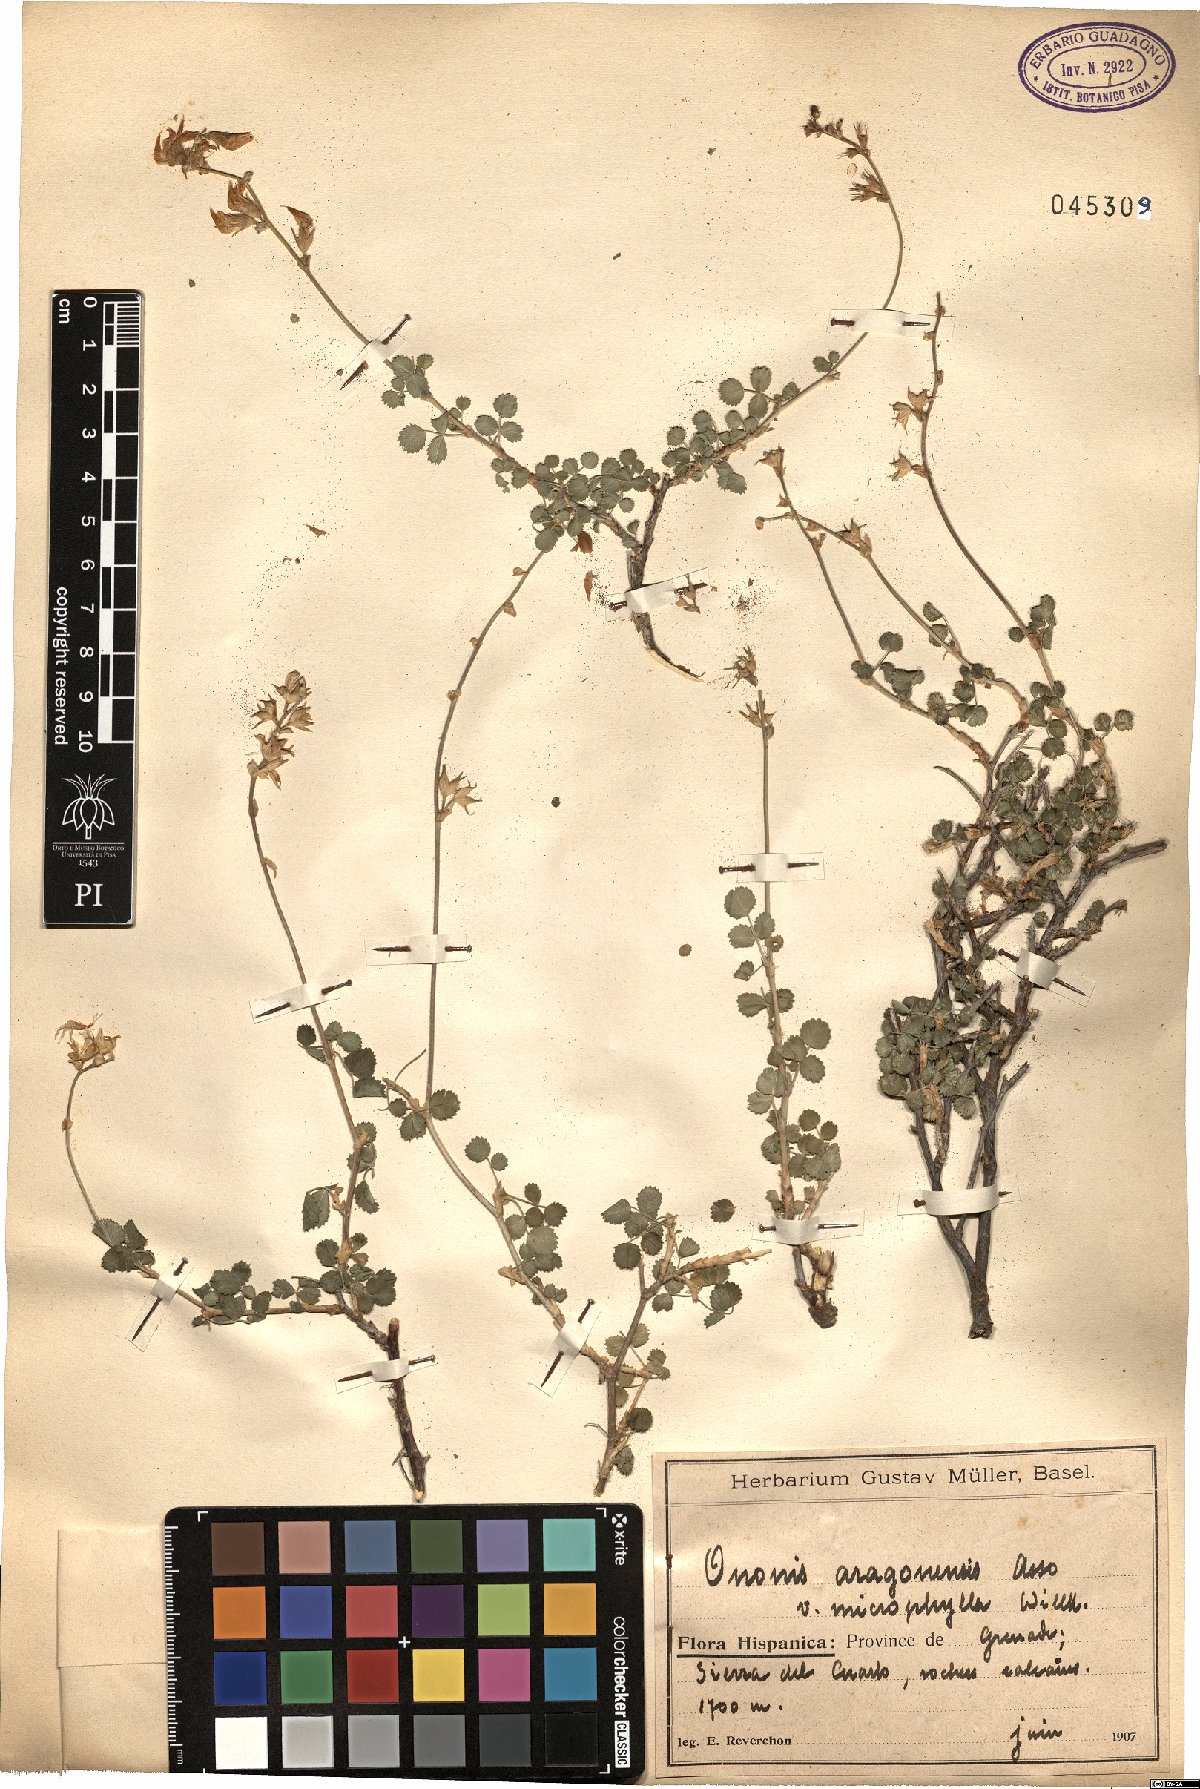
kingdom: Plantae
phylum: Tracheophyta
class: Magnoliopsida
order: Fabales
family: Fabaceae
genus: Ononis
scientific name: Ononis reuteri
